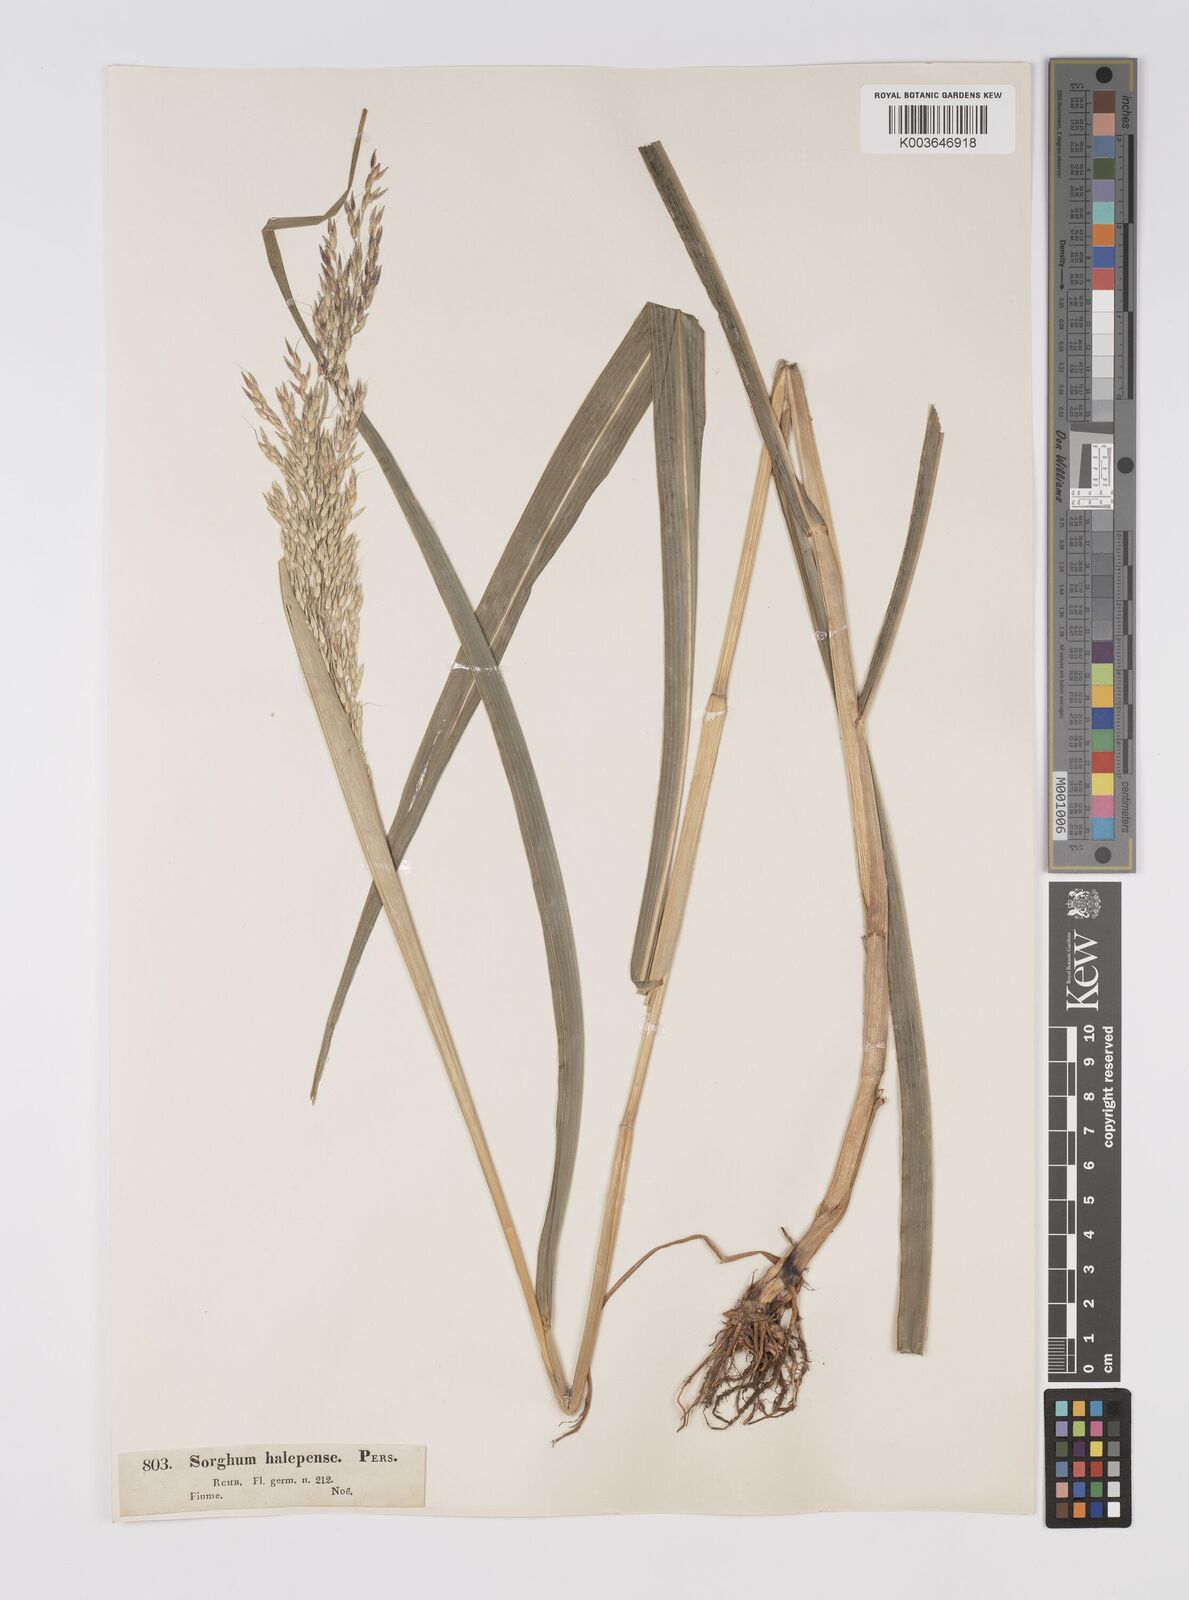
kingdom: Plantae
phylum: Tracheophyta
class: Liliopsida
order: Poales
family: Poaceae
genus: Sorghum
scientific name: Sorghum halepense
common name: Johnson-grass
